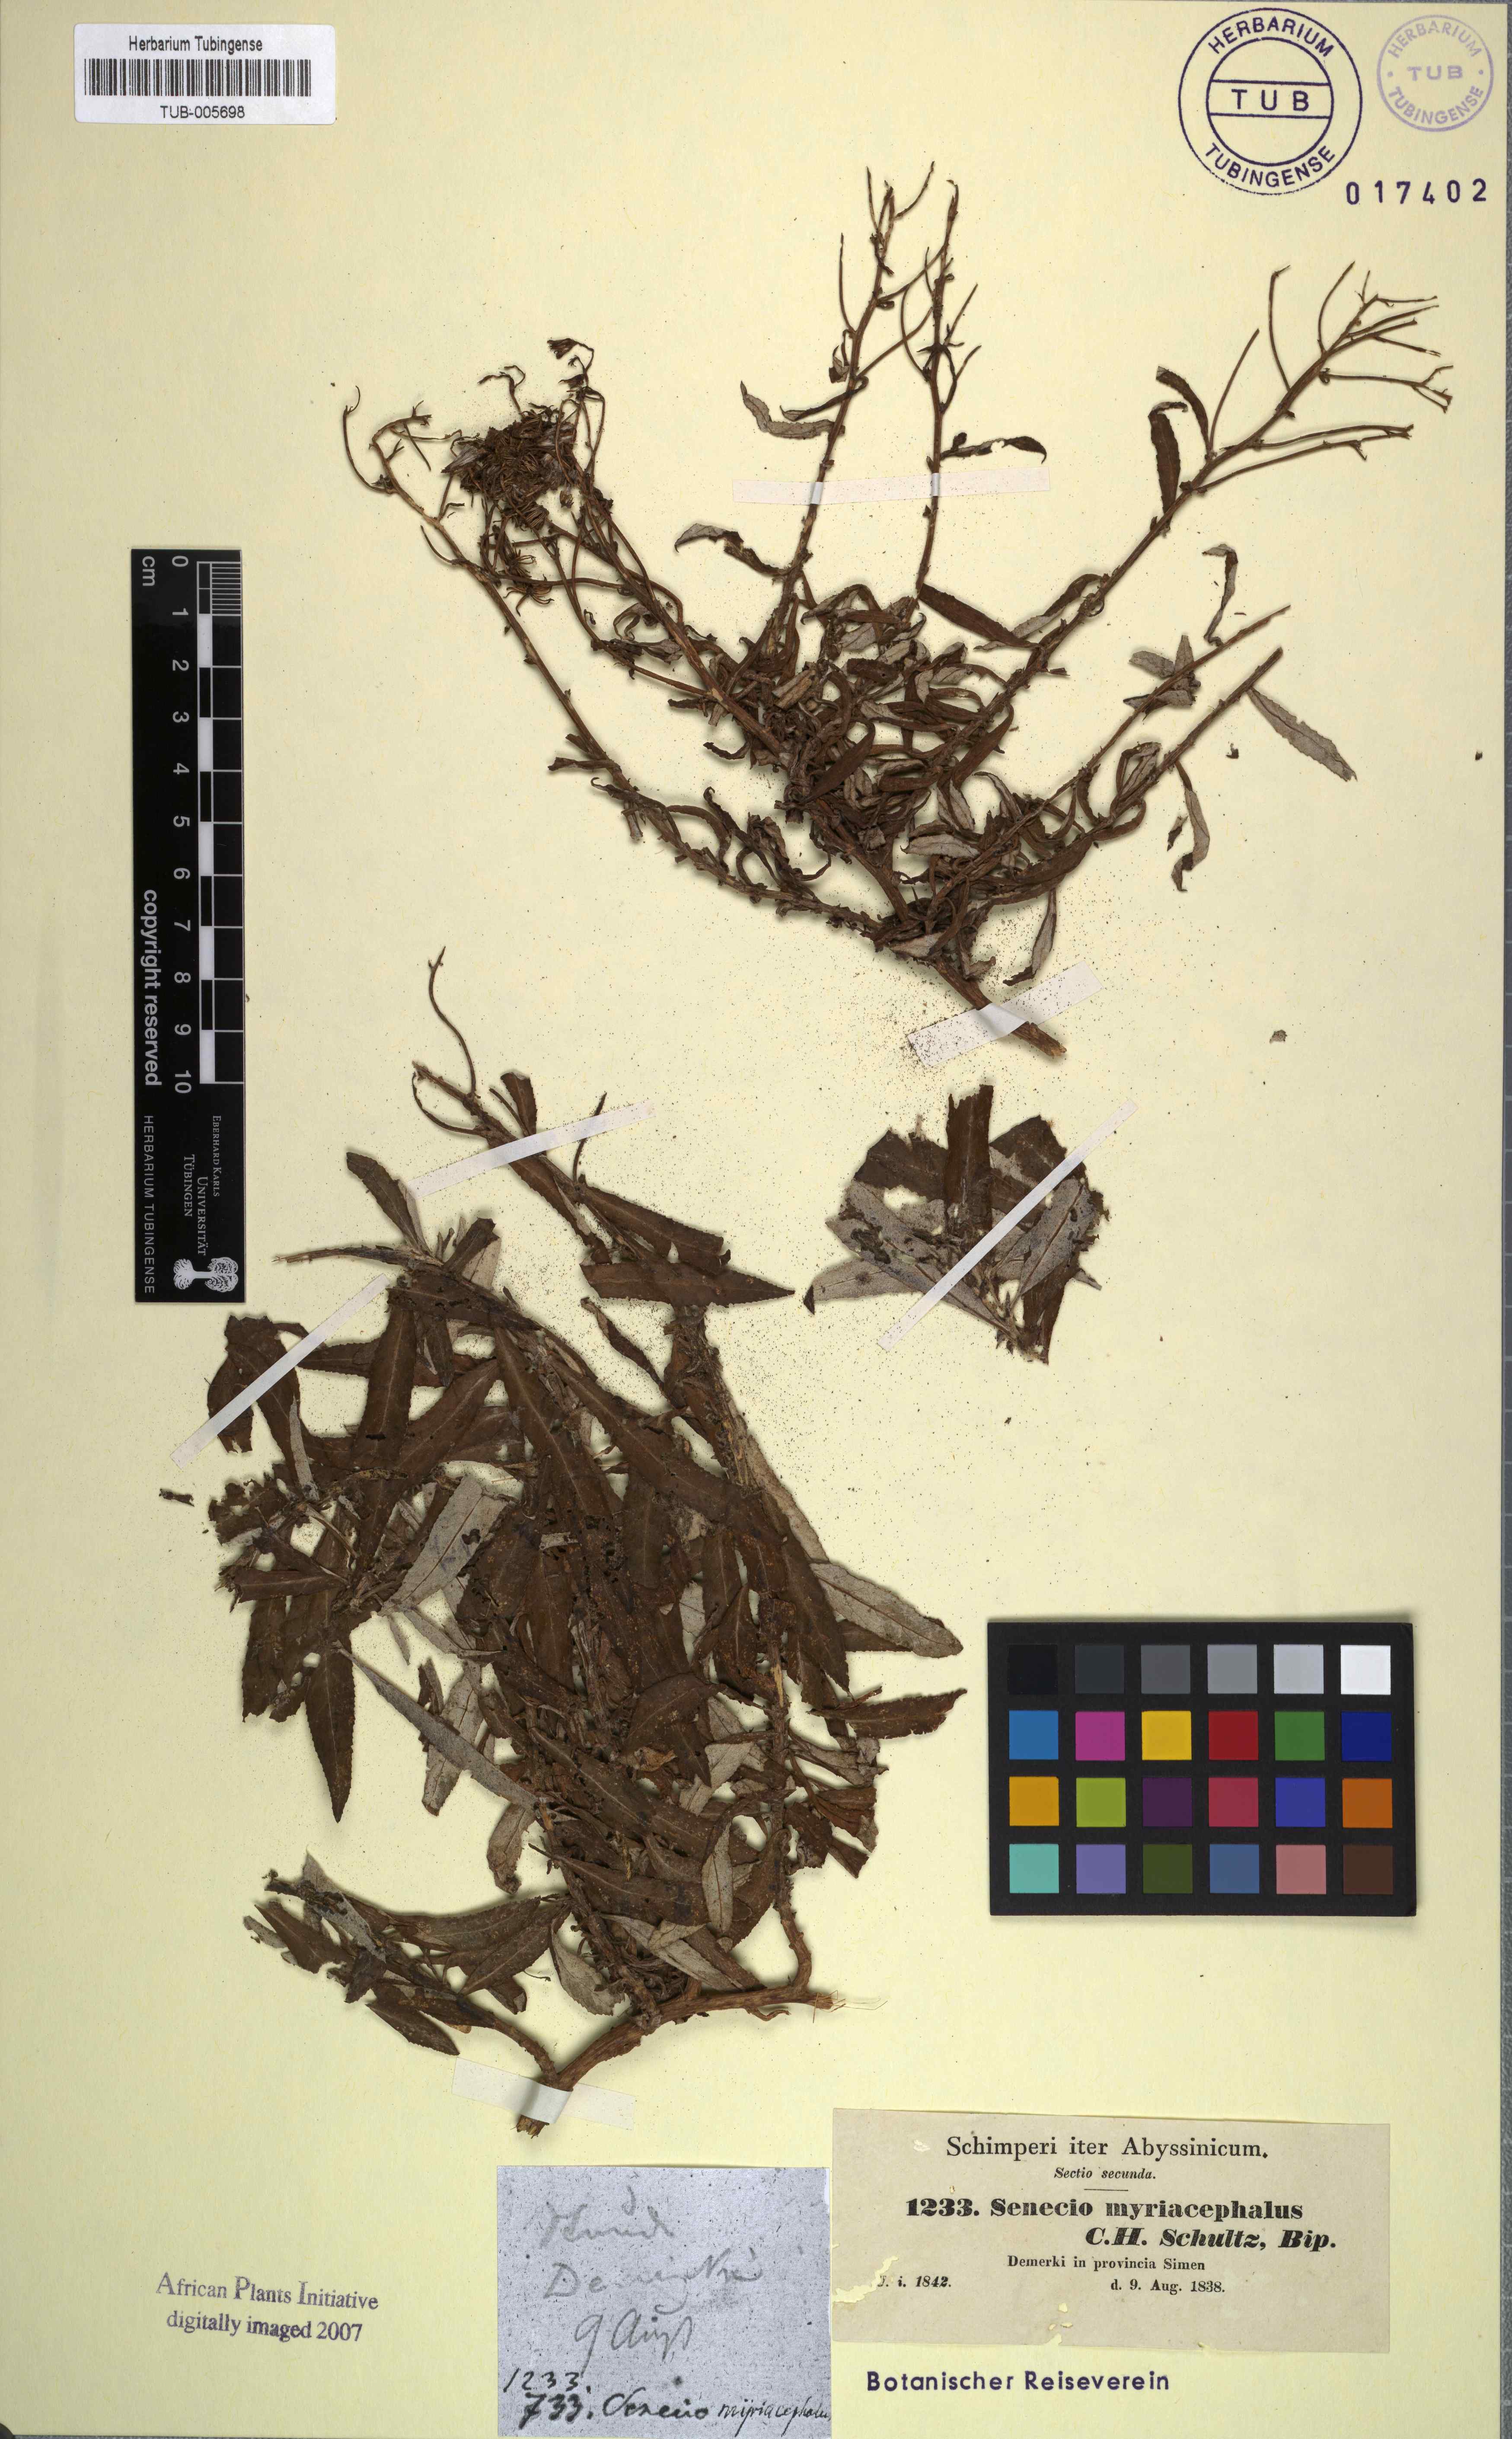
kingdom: Plantae
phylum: Tracheophyta
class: Magnoliopsida
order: Asterales
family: Asteraceae
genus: Senecio
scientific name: Senecio myriocephalus
